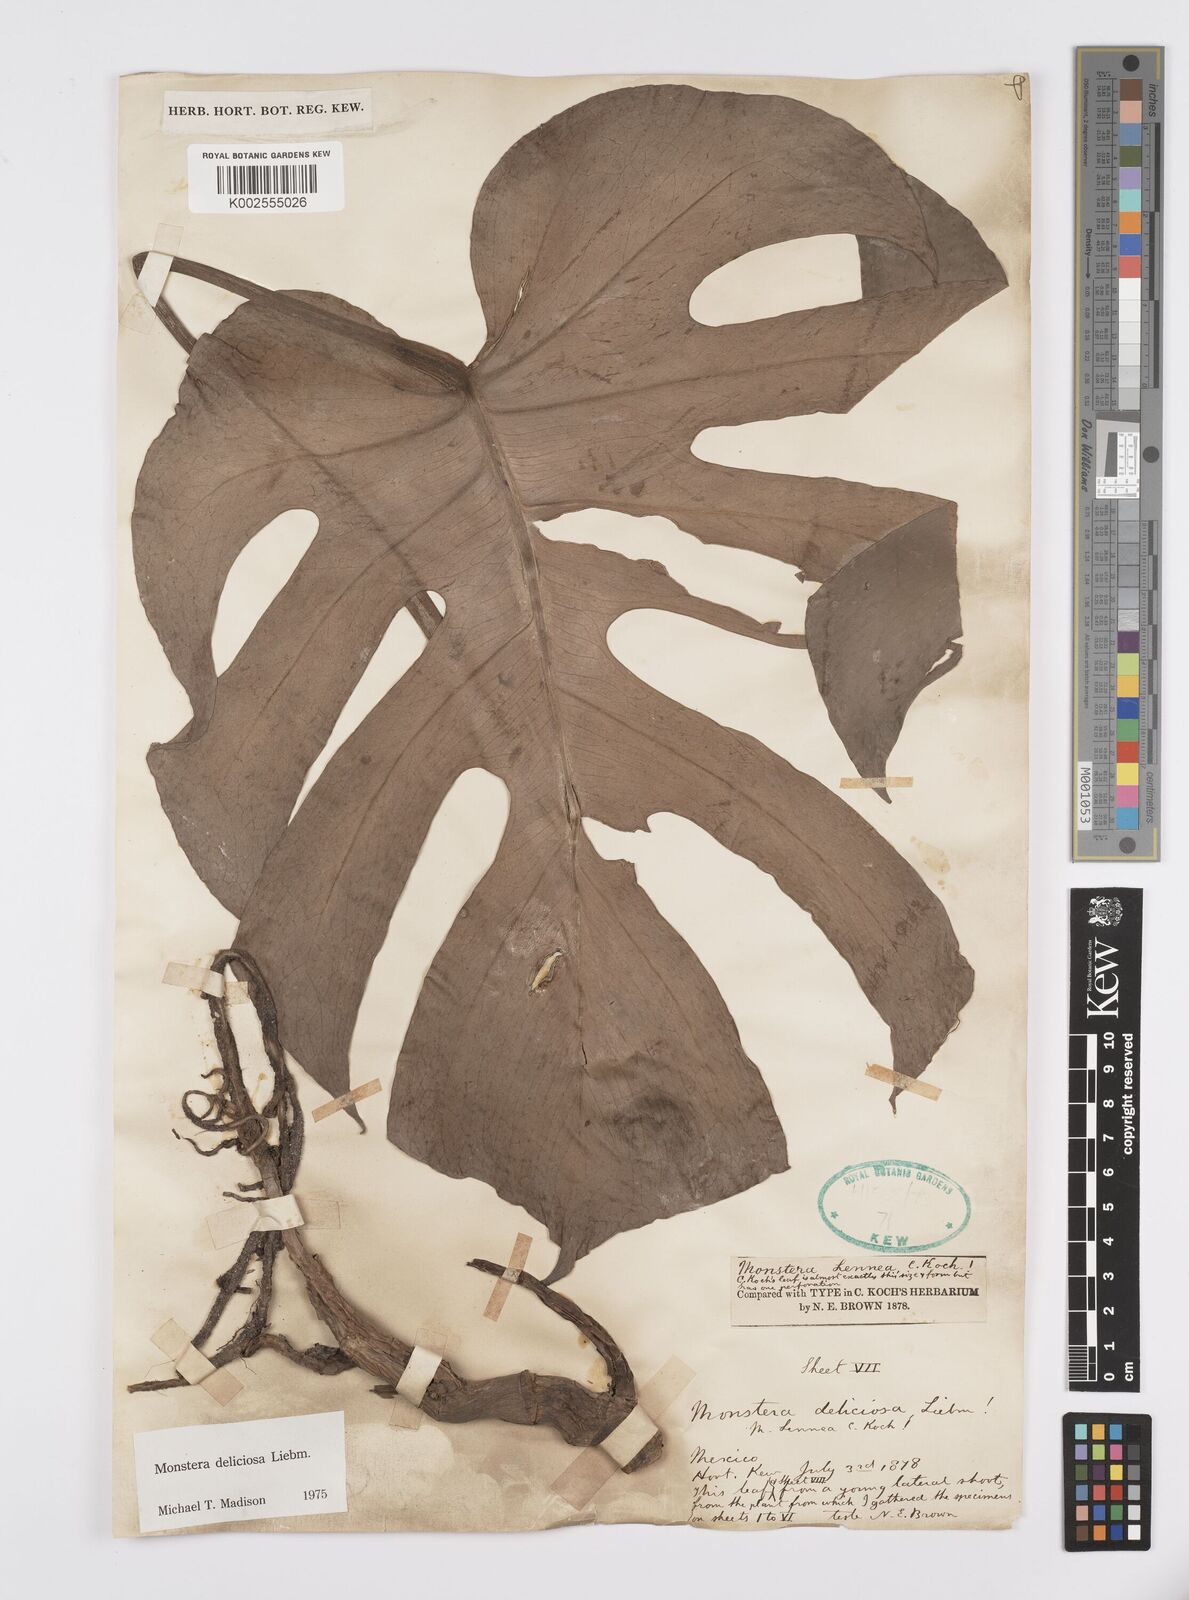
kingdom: Plantae
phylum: Tracheophyta
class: Liliopsida
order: Alismatales
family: Araceae
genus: Monstera
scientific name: Monstera deliciosa
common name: Cut-leaf-philodendron
